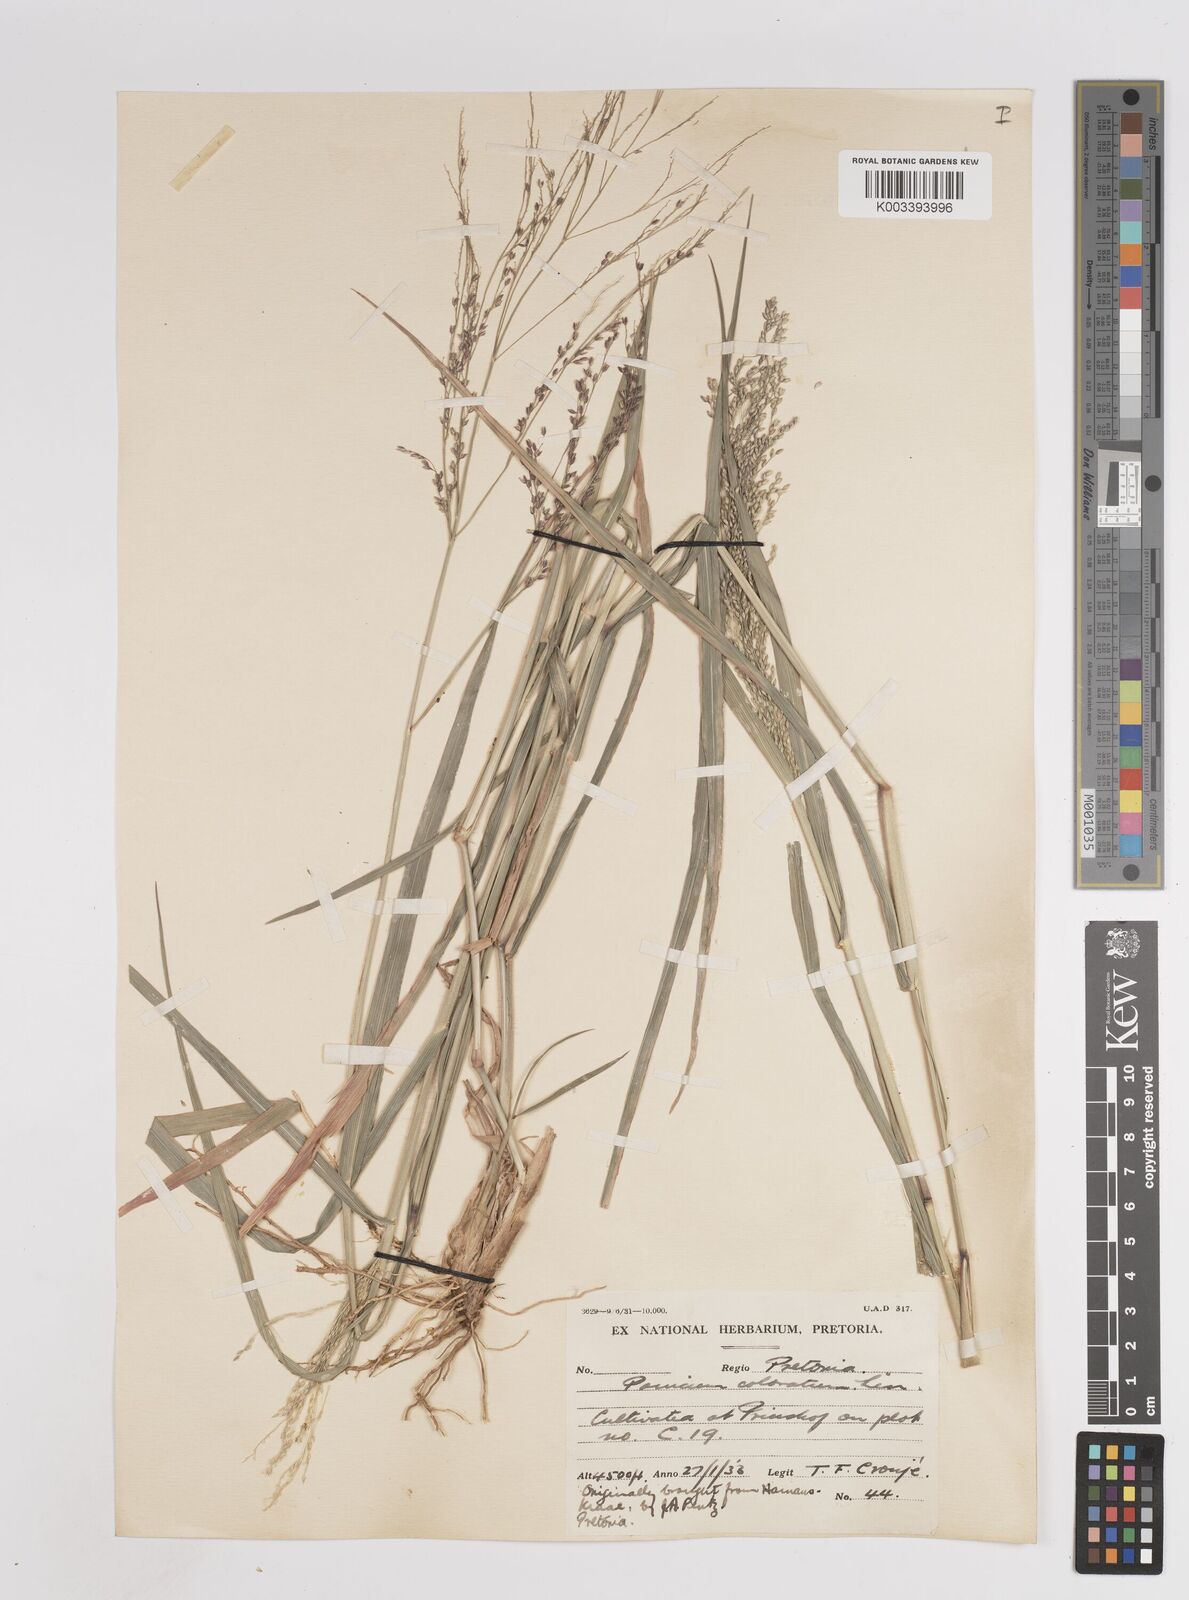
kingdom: Plantae
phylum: Tracheophyta
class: Liliopsida
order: Poales
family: Poaceae
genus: Panicum
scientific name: Panicum coloratum
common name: Kleingrass
